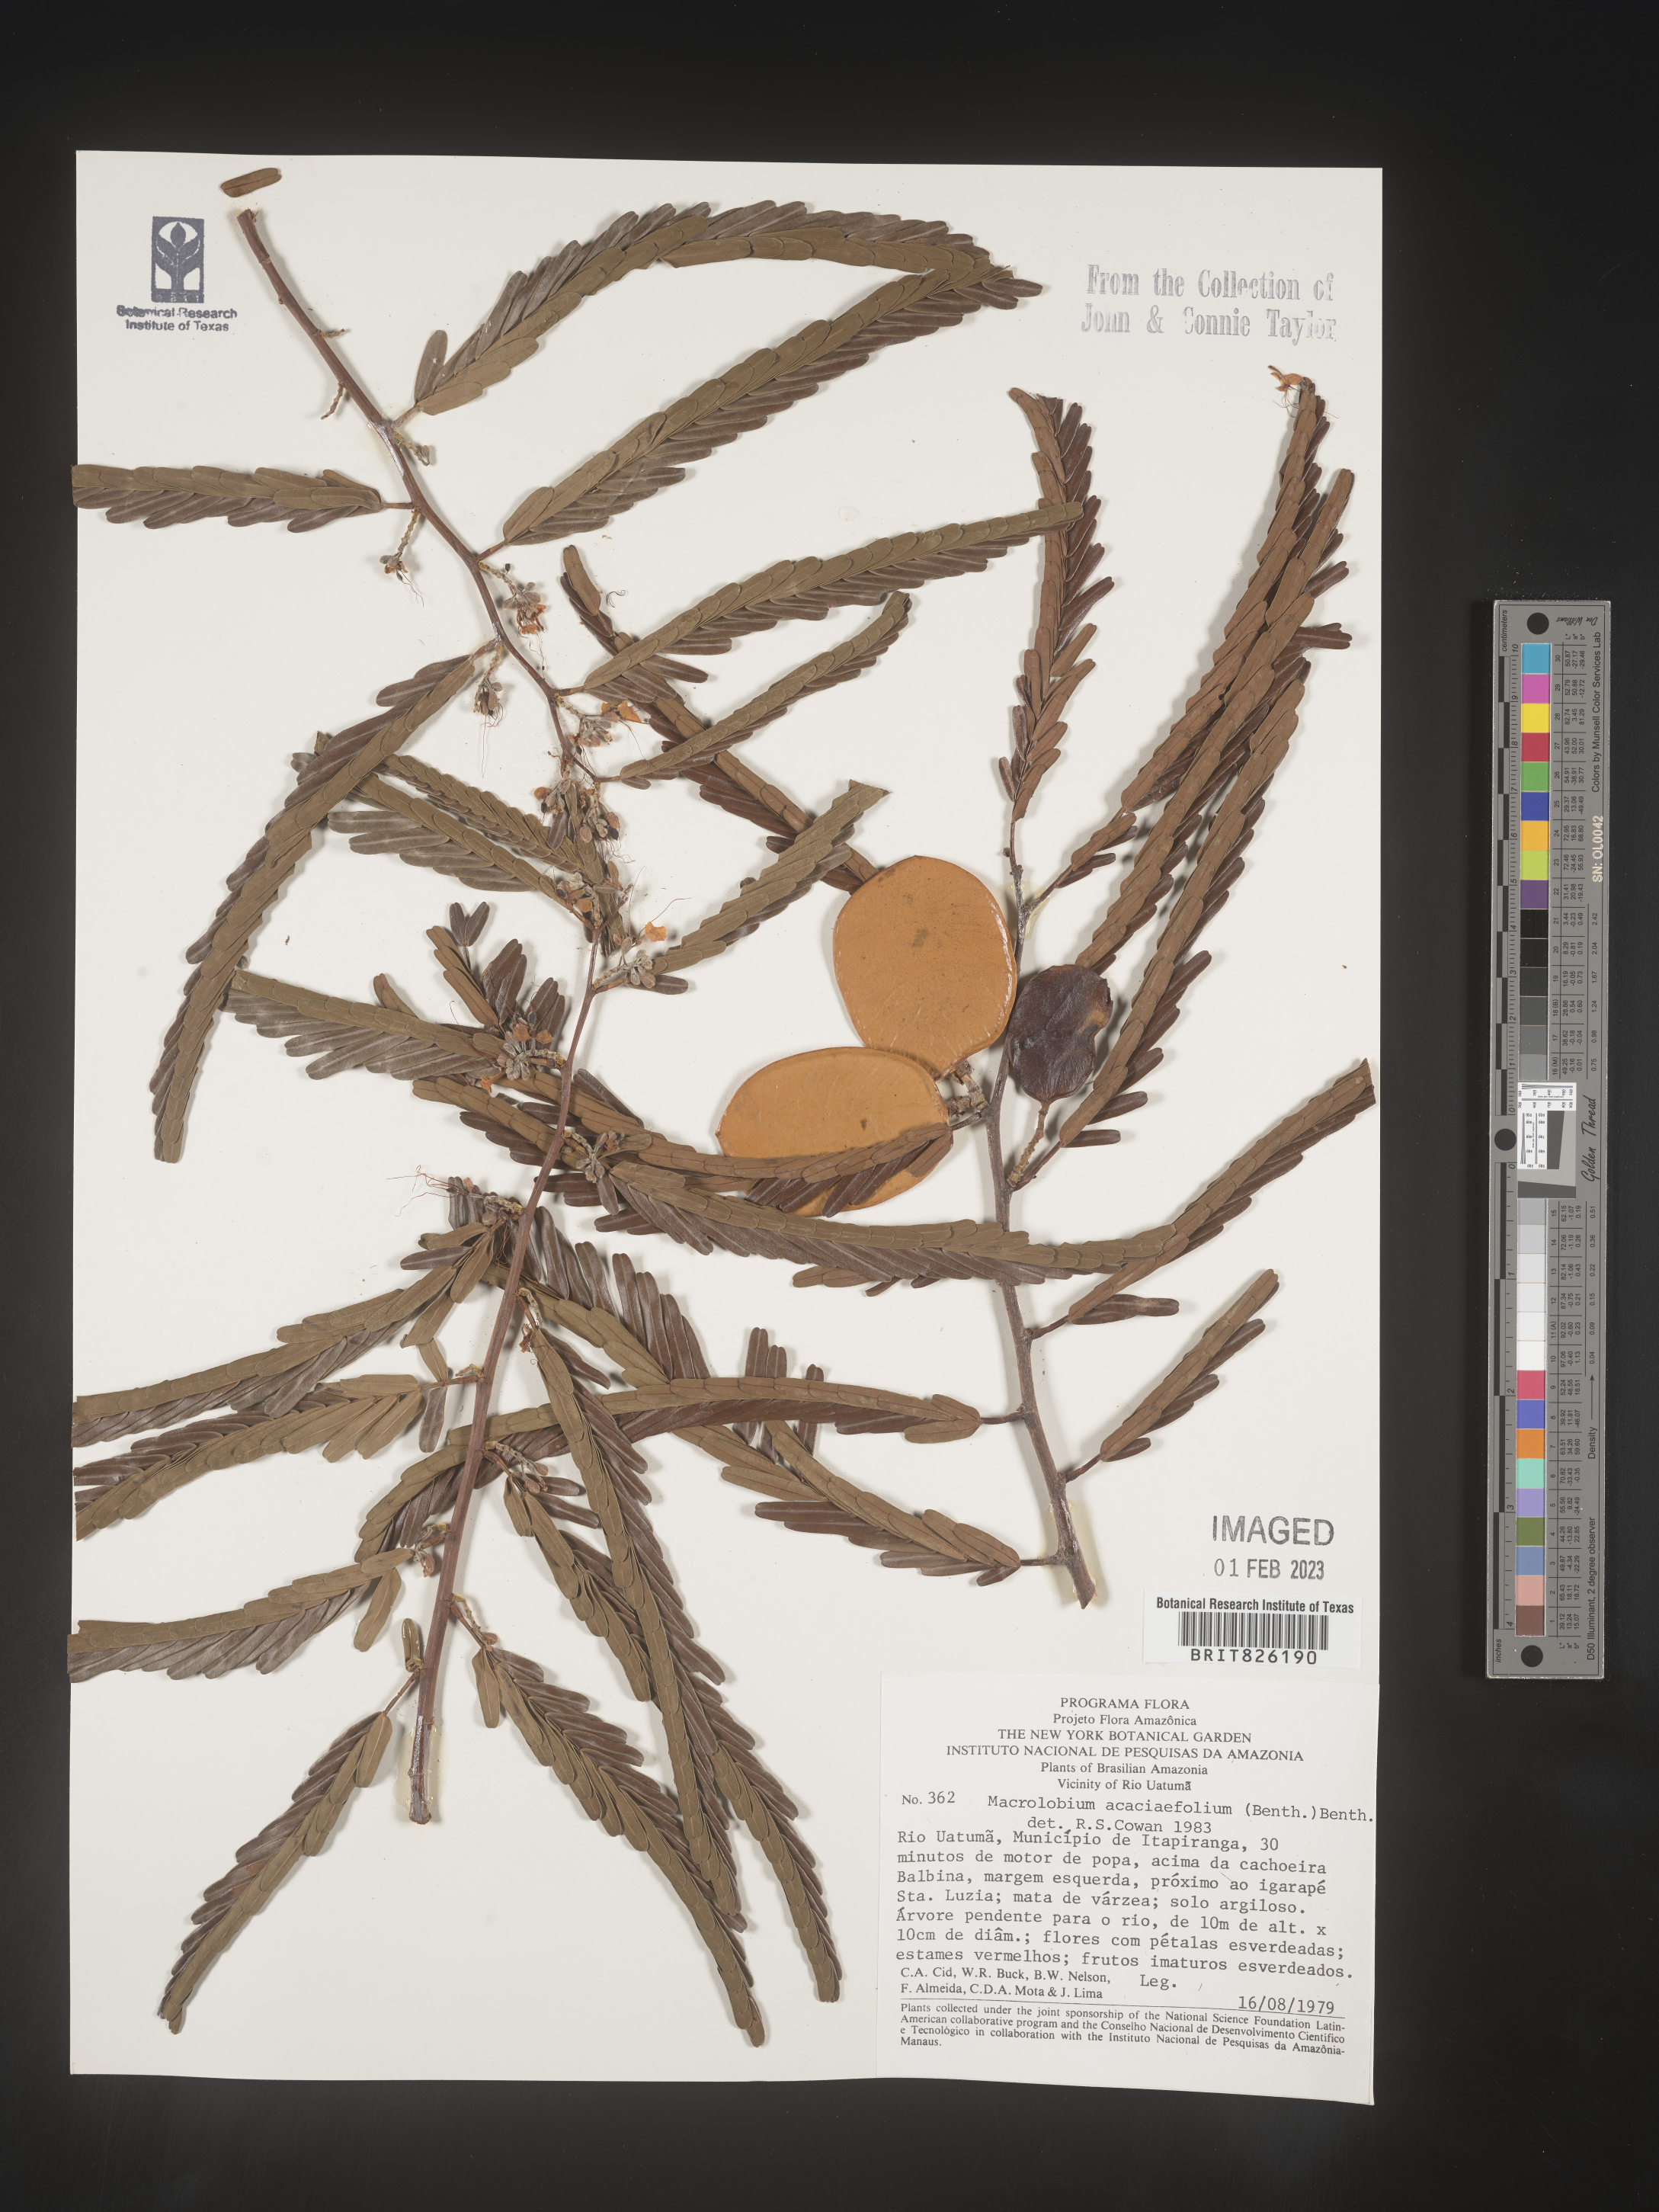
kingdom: Plantae
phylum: Tracheophyta
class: Magnoliopsida
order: Fabales
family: Fabaceae
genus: Macrolobium
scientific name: Macrolobium
